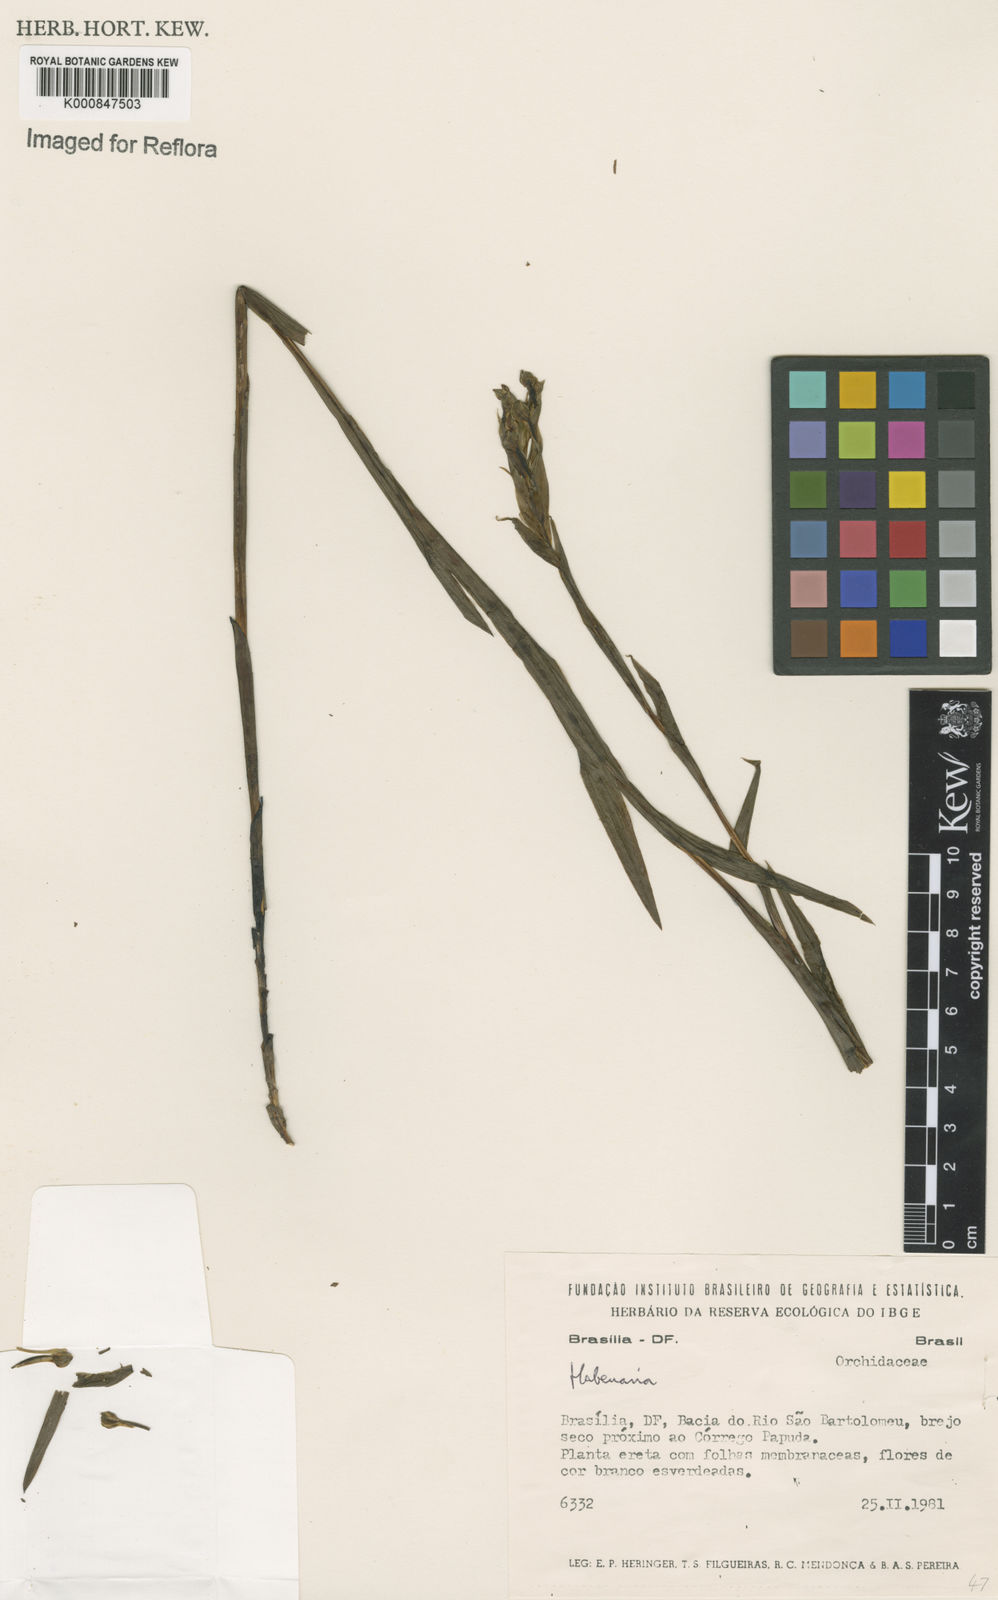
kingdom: Plantae
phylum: Tracheophyta
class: Liliopsida
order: Asparagales
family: Orchidaceae
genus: Habenaria
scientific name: Habenaria
